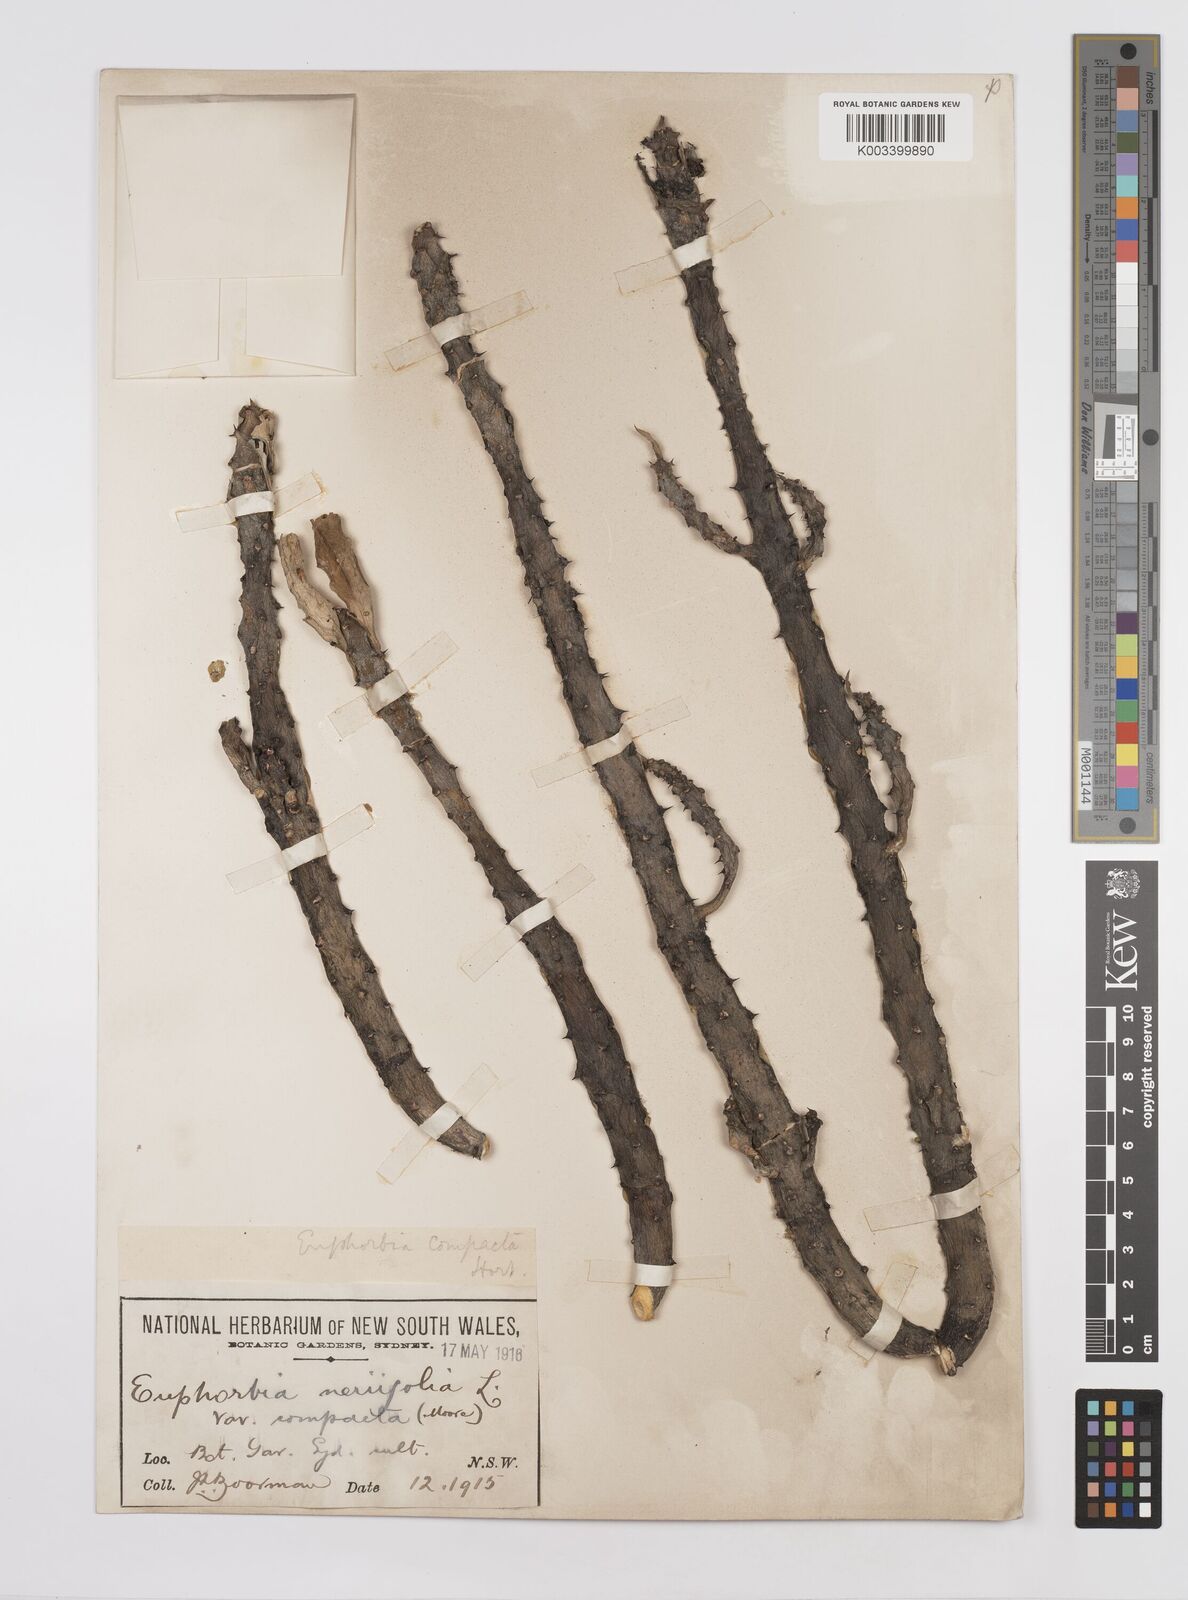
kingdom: Plantae
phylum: Tracheophyta
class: Magnoliopsida
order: Malpighiales
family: Euphorbiaceae
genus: Euphorbia
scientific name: Euphorbia
